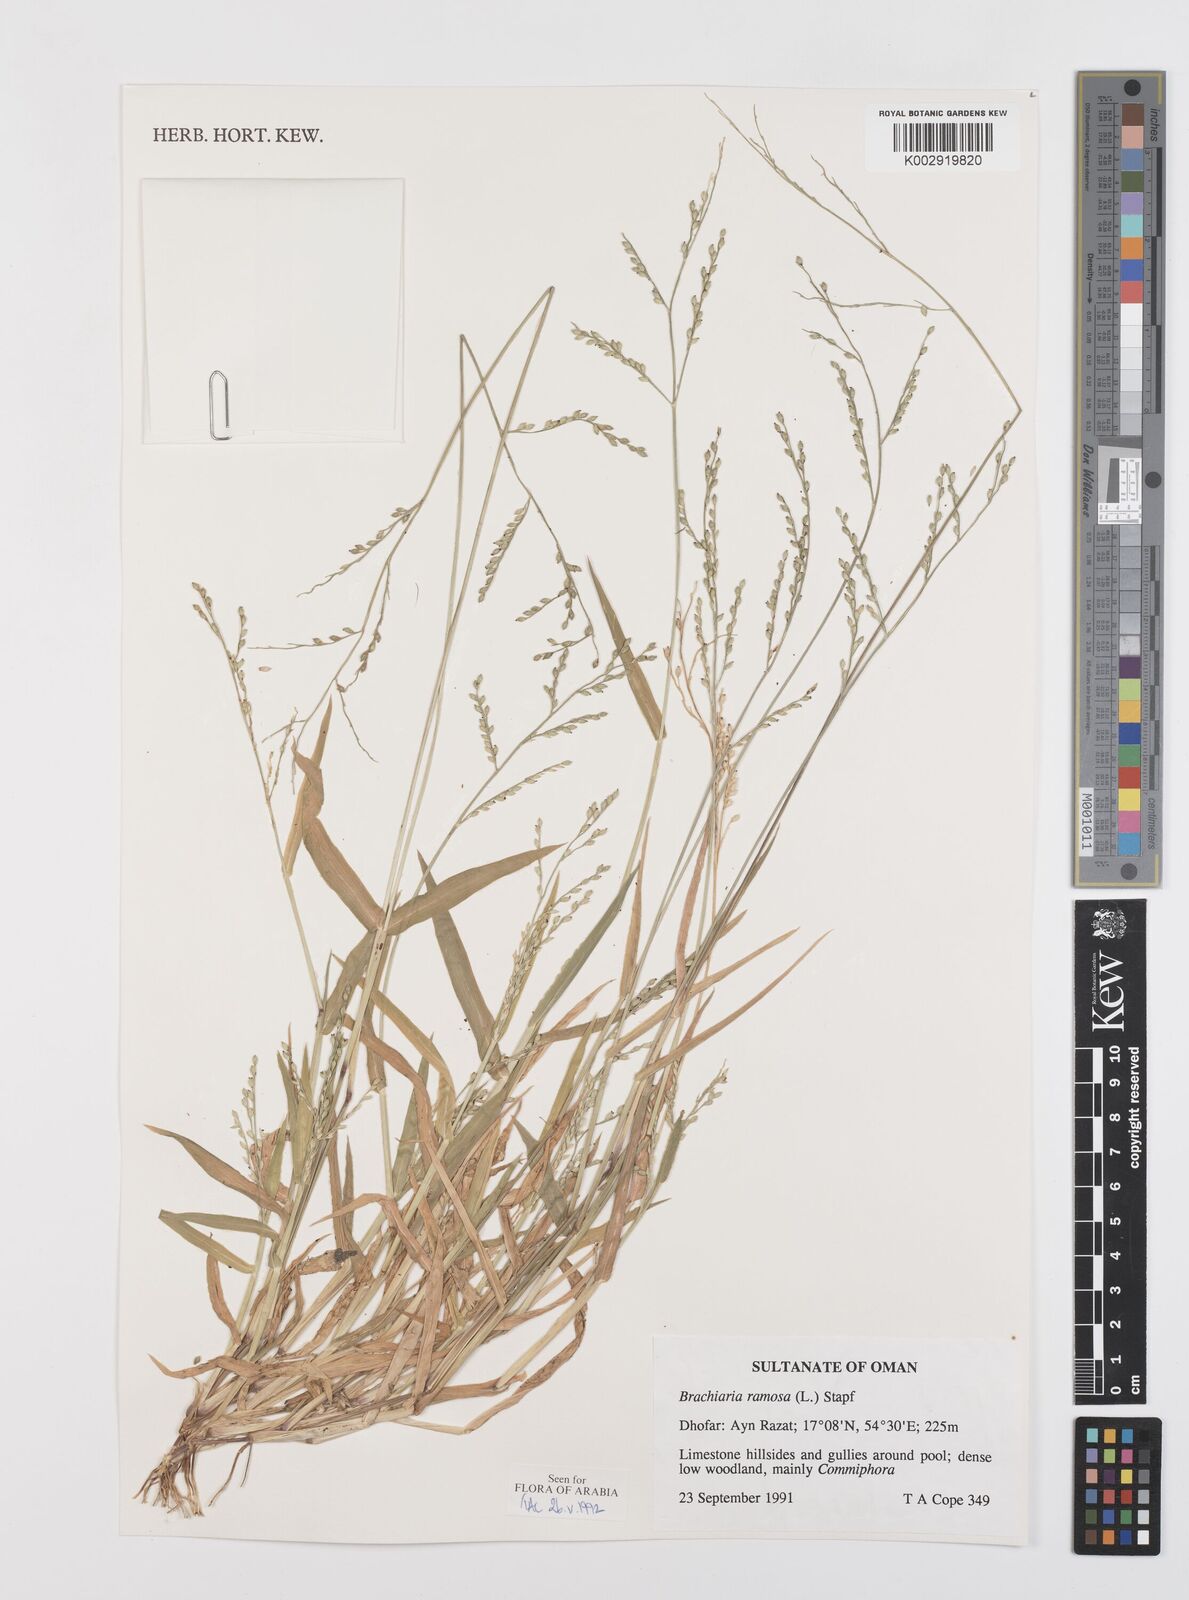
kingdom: Plantae
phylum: Tracheophyta
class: Liliopsida
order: Poales
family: Poaceae
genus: Urochloa
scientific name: Urochloa ramosa
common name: Browntop millet
